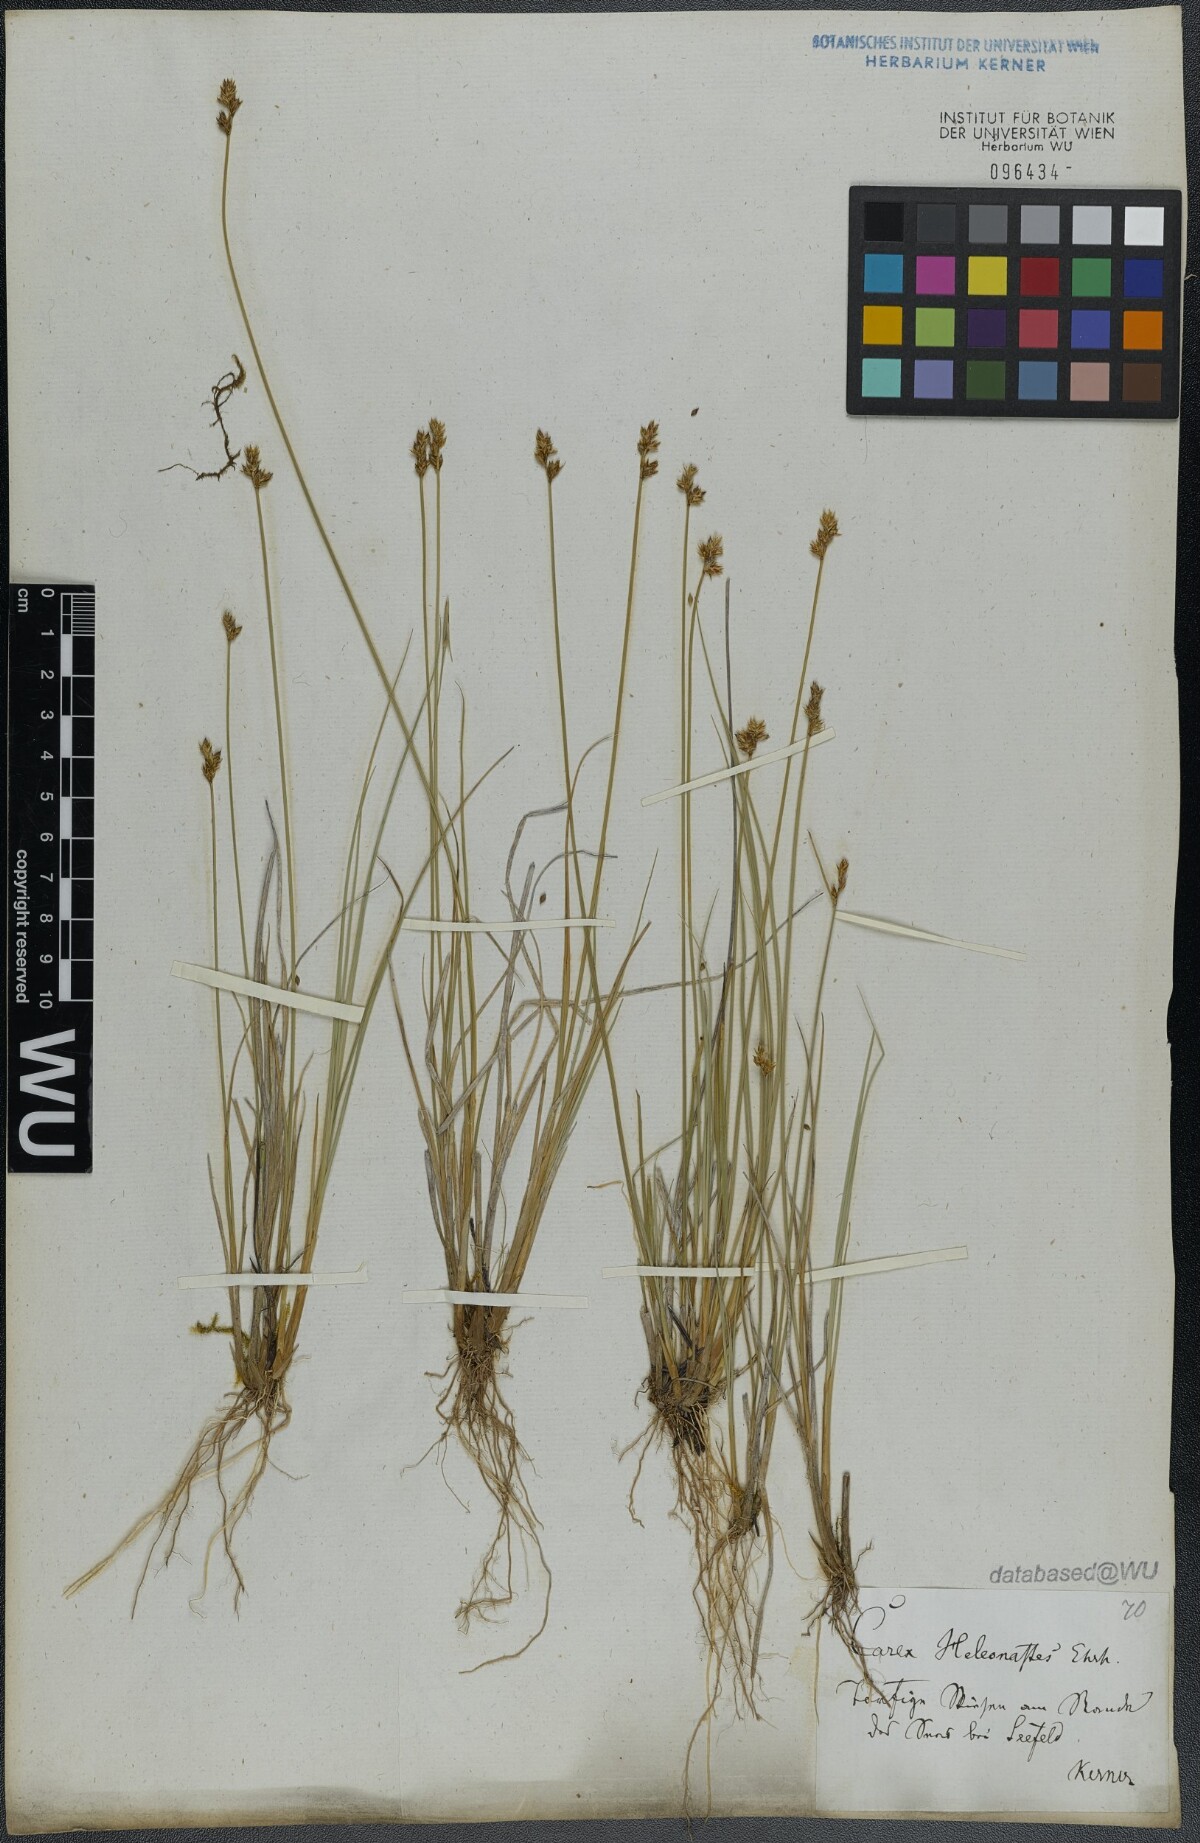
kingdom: Plantae
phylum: Tracheophyta
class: Liliopsida
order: Poales
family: Cyperaceae
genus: Carex
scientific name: Carex heleonastes
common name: Hudson bay sedge
